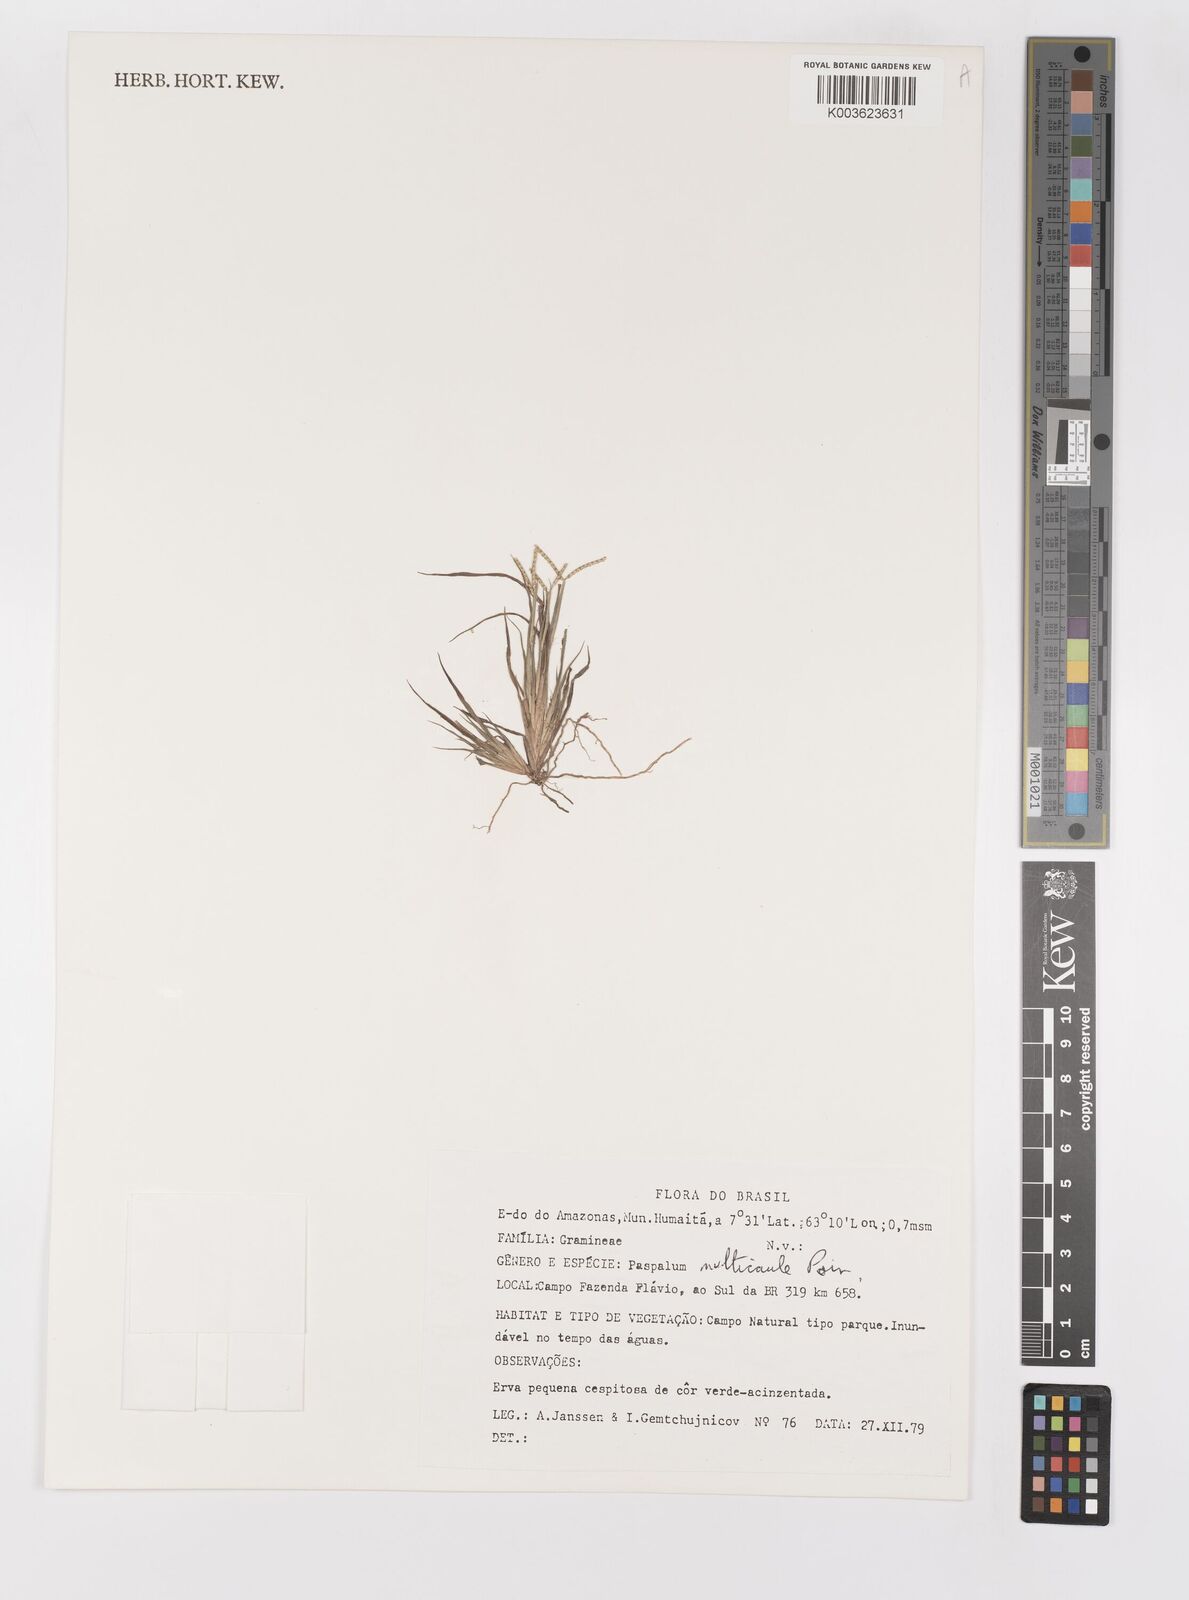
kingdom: Plantae
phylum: Tracheophyta
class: Liliopsida
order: Poales
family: Poaceae
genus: Paspalum
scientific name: Paspalum multicaule
